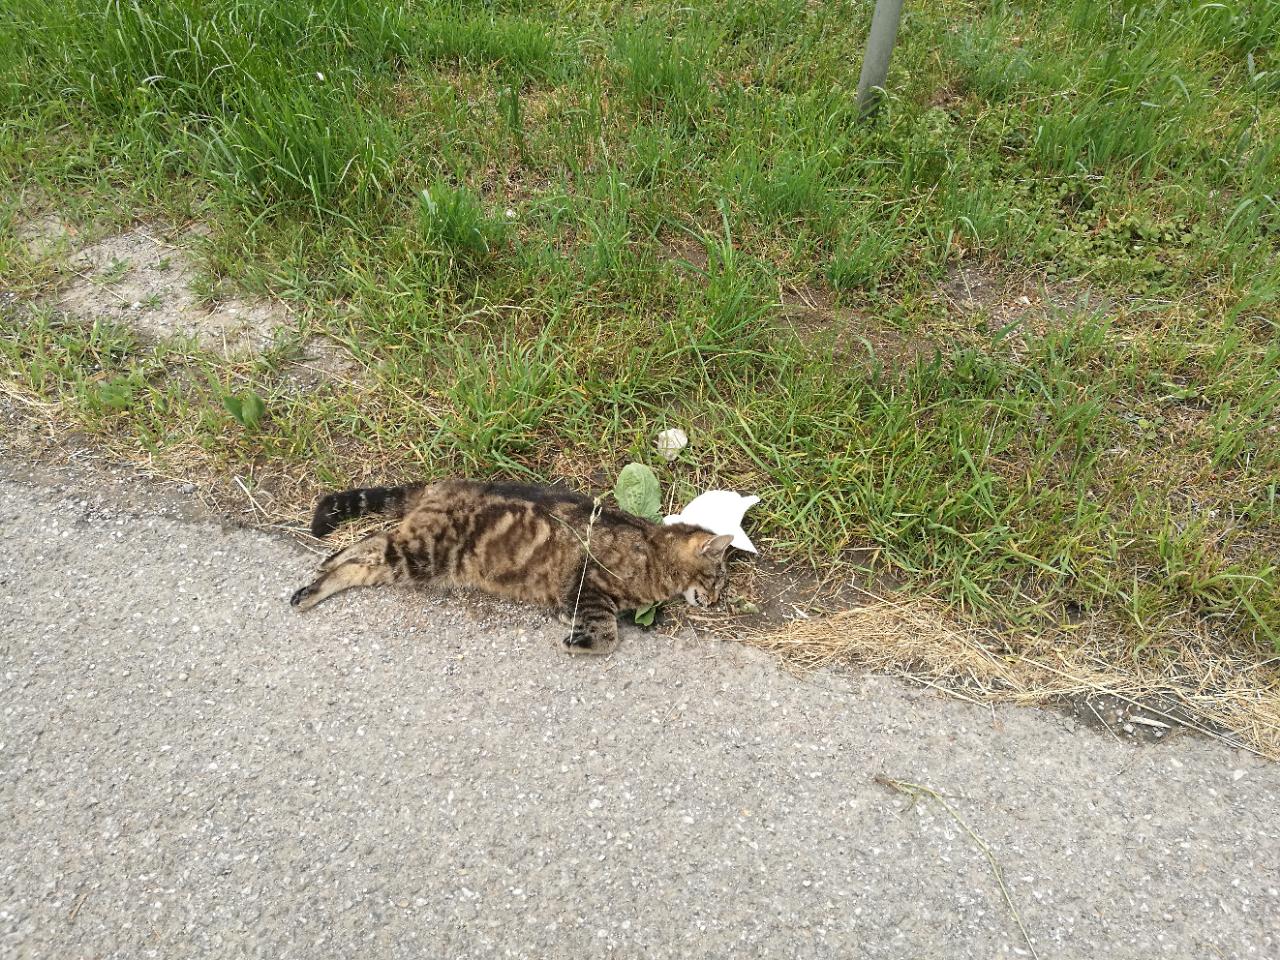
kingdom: Animalia
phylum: Chordata
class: Mammalia
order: Carnivora
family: Felidae
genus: Felis
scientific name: Felis catus
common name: Domestic cat
